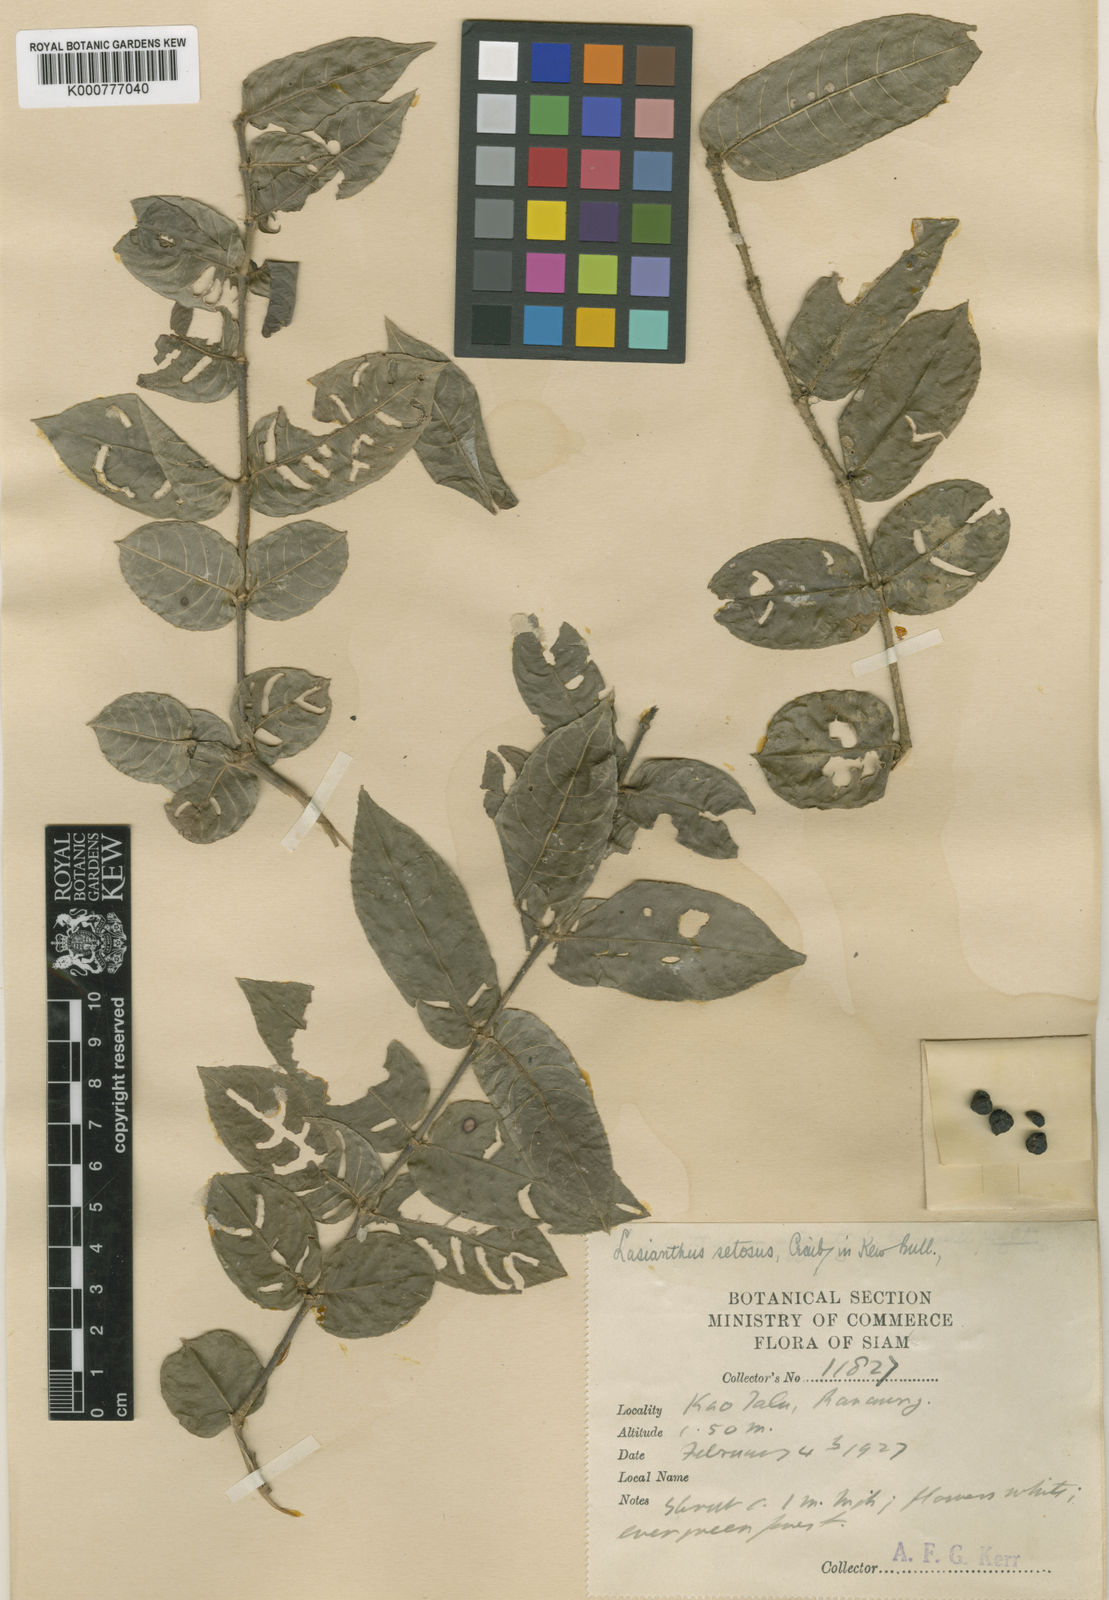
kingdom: Plantae
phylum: Tracheophyta
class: Magnoliopsida
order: Gentianales
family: Rubiaceae
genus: Lasianthus
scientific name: Lasianthus attenuatus
